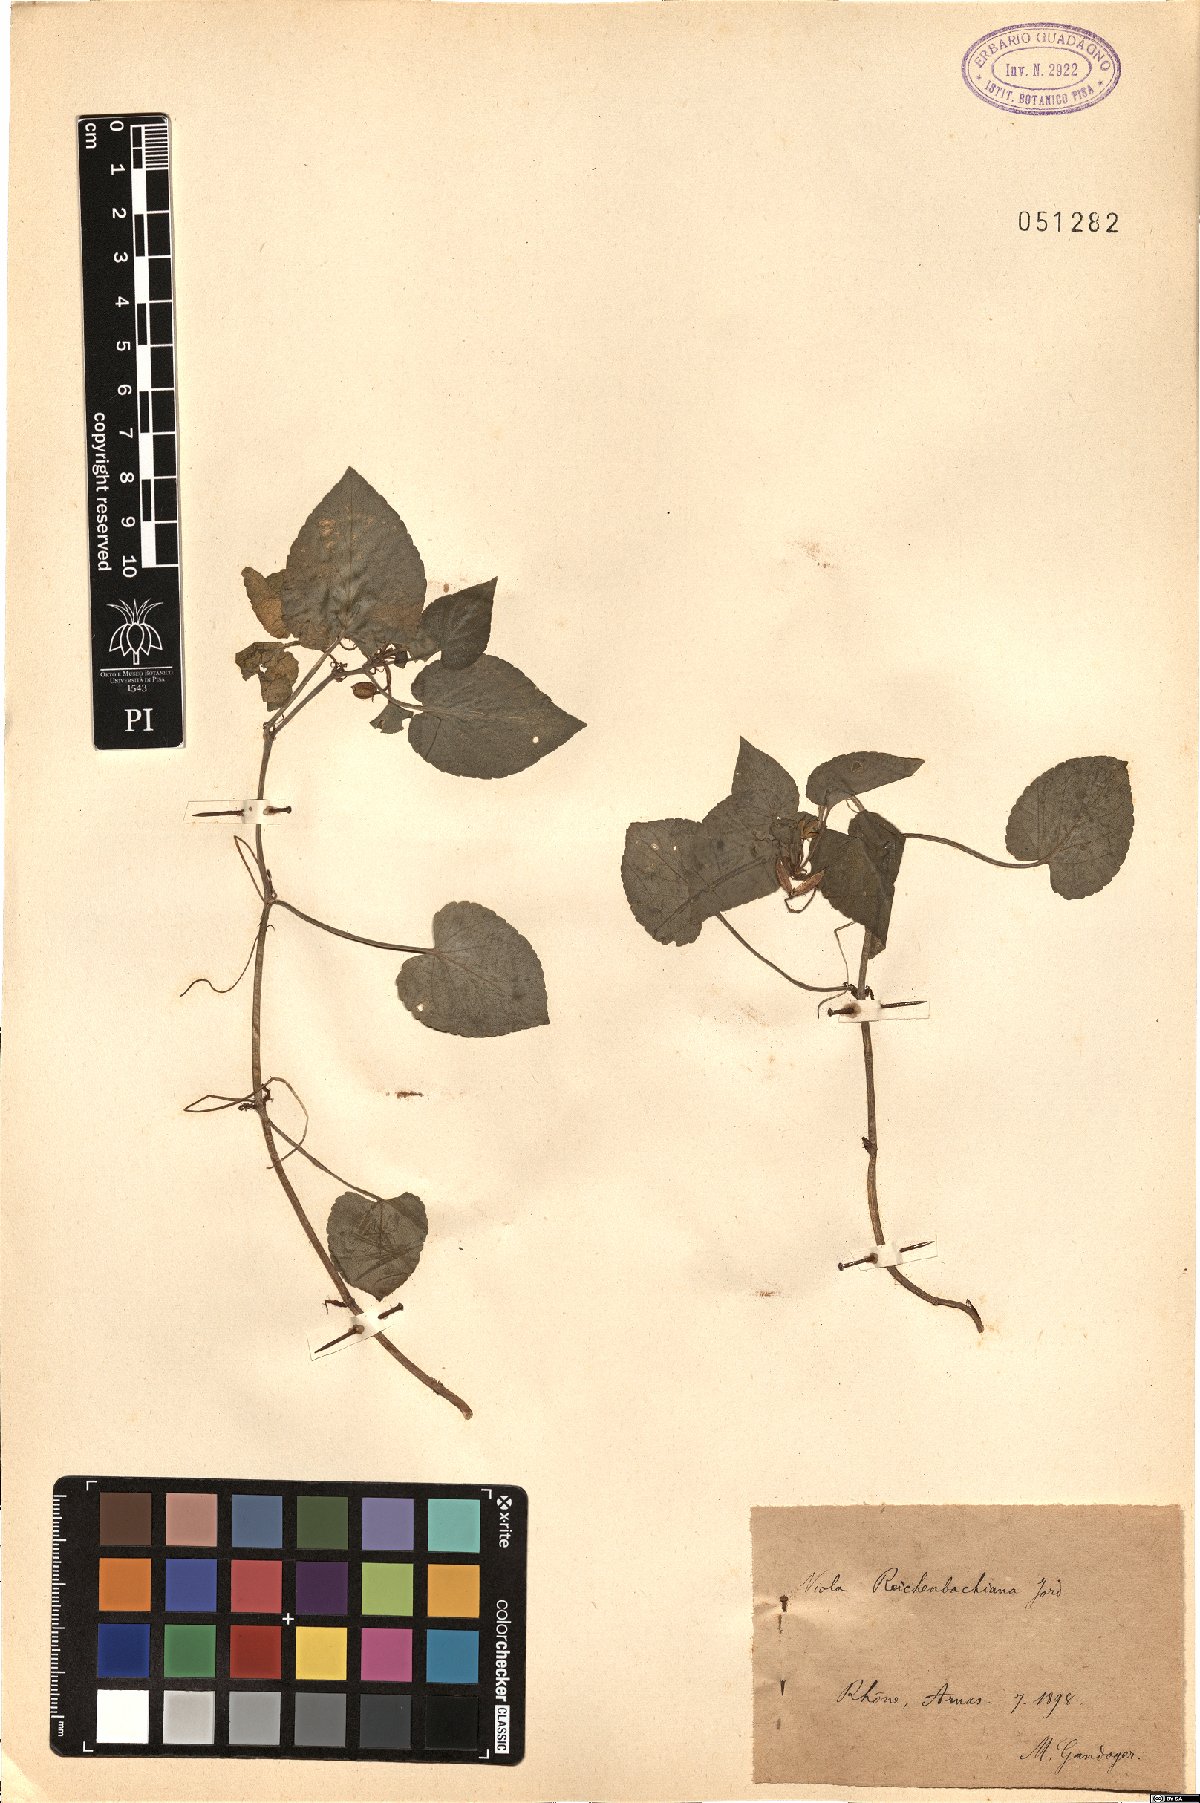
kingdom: Plantae
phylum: Tracheophyta
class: Magnoliopsida
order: Malpighiales
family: Violaceae
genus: Viola
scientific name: Viola reichenbachiana
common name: Early dog-violet
